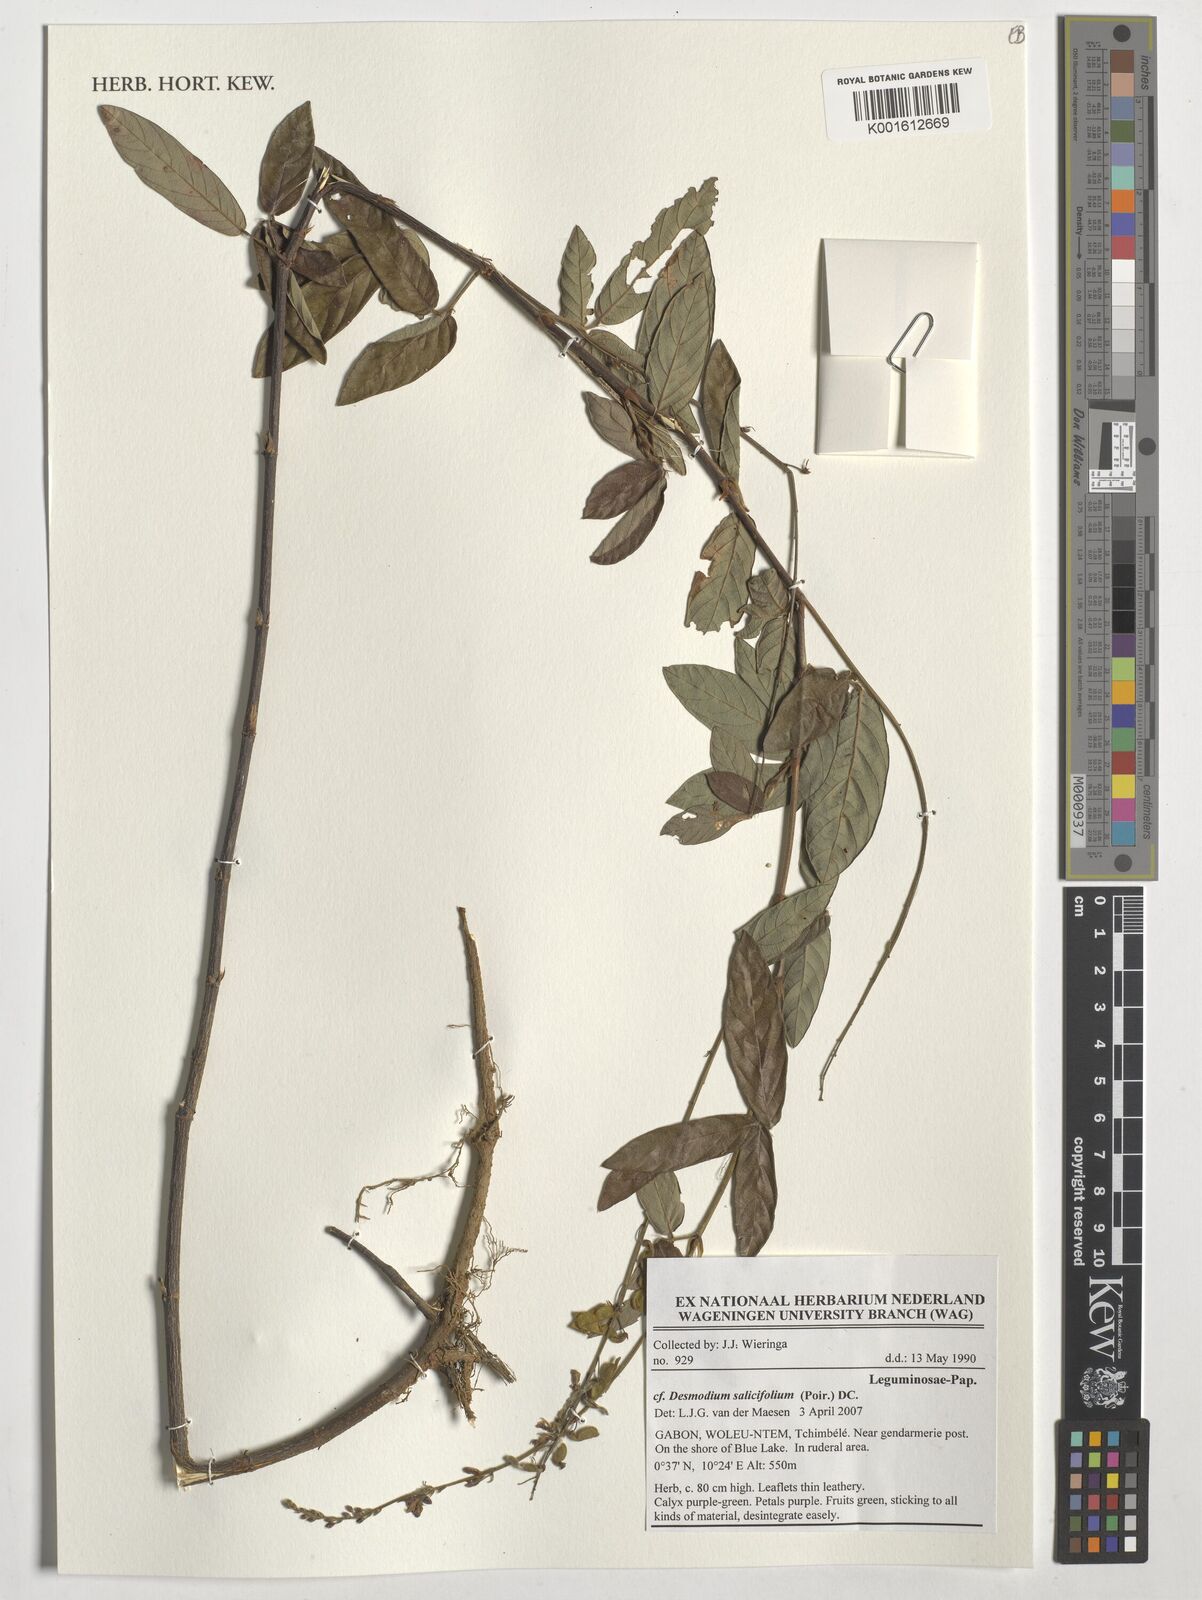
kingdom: Plantae
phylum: Tracheophyta
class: Magnoliopsida
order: Fabales
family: Fabaceae
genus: Pleurolobus
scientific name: Pleurolobus salicifolius
